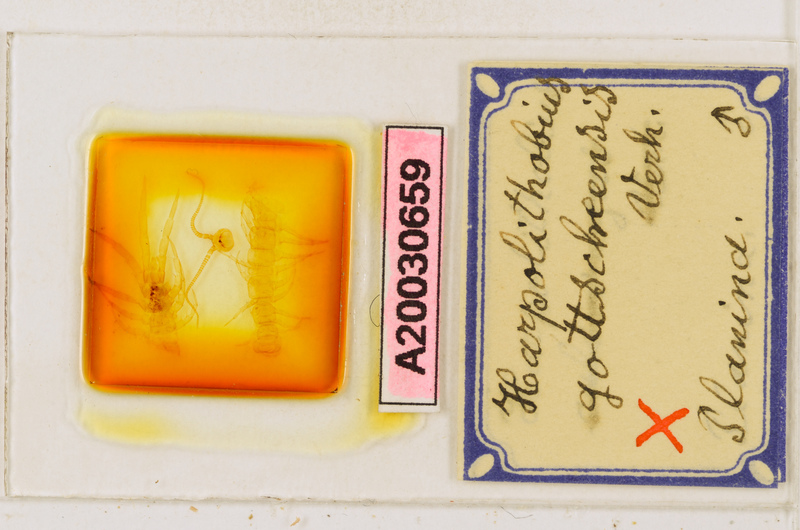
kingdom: Animalia
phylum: Arthropoda
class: Chilopoda
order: Lithobiomorpha
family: Lithobiidae
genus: Harpolithobius
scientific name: Harpolithobius gottscheensis
